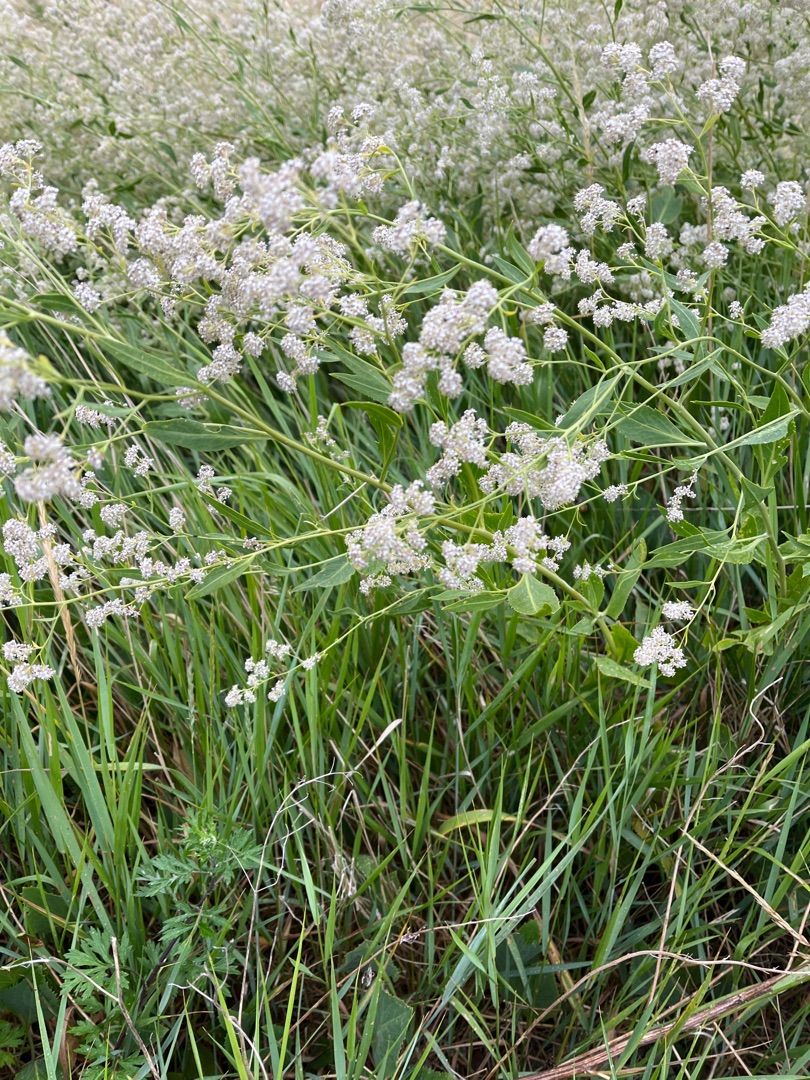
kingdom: Plantae
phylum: Tracheophyta
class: Magnoliopsida
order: Brassicales
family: Brassicaceae
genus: Lepidium
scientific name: Lepidium latifolium
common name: Strand-karse
